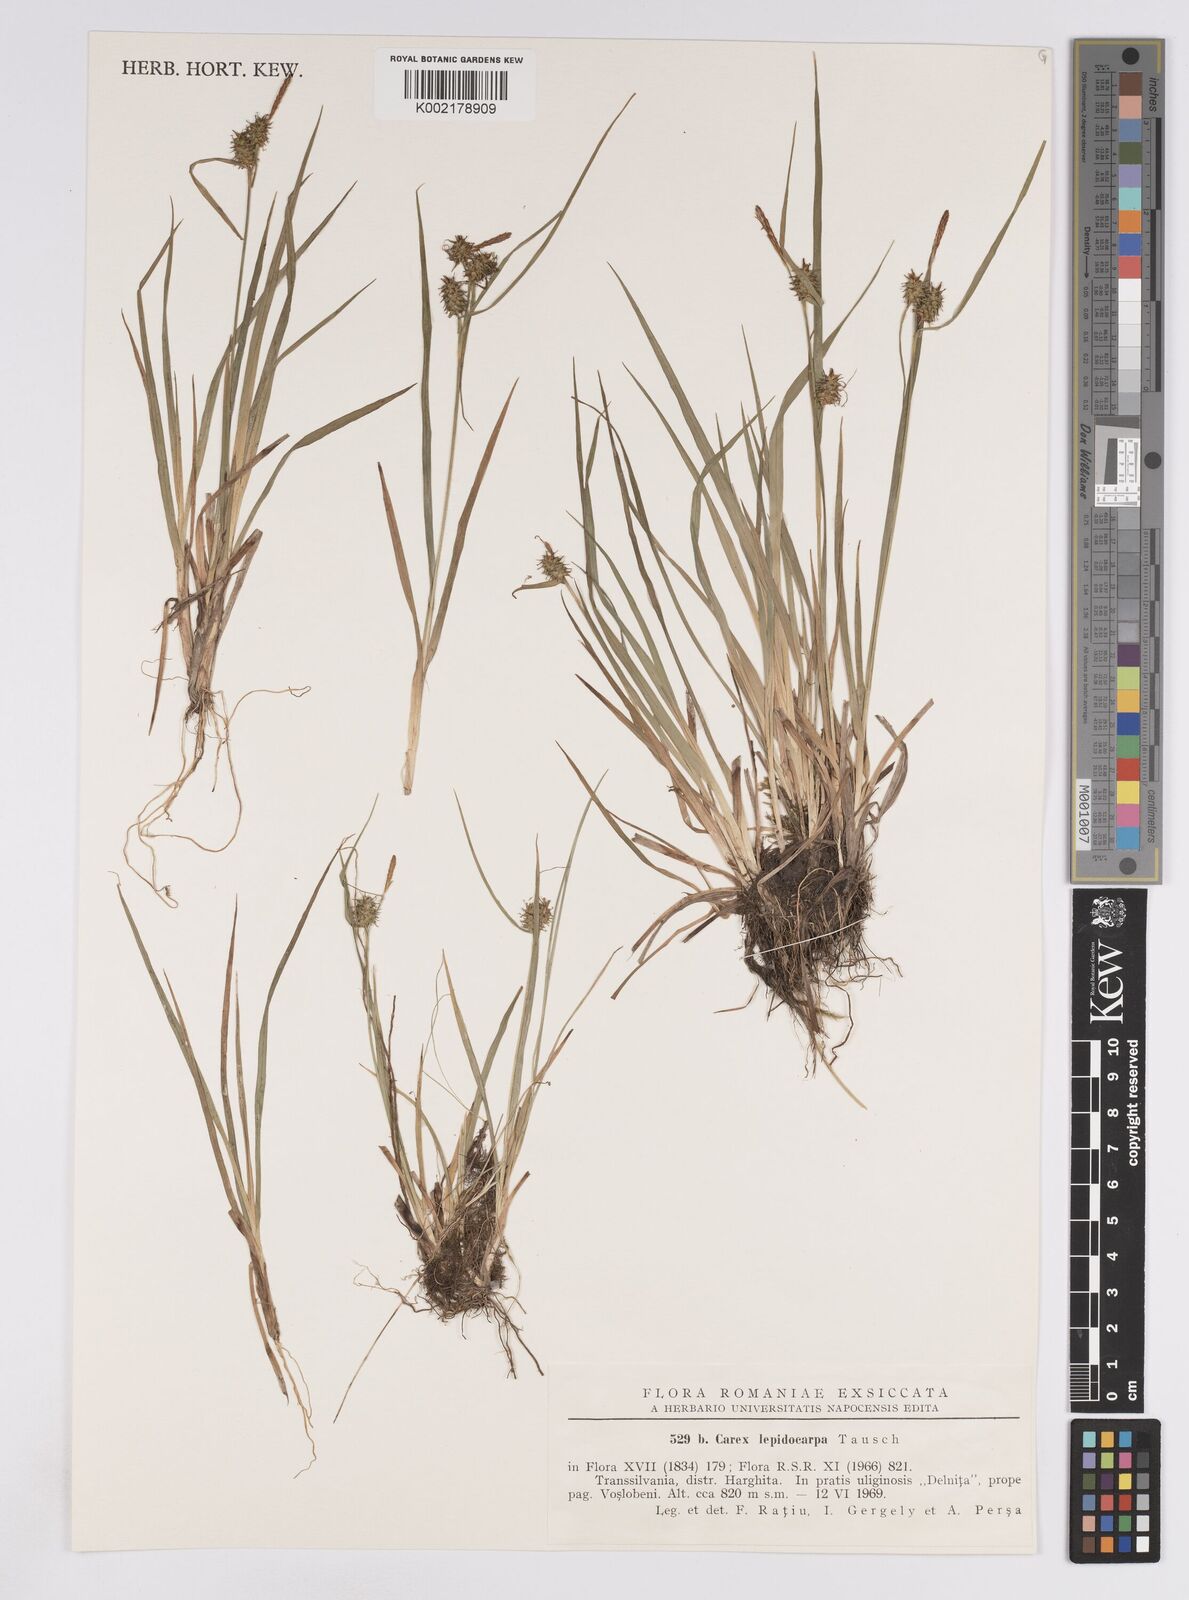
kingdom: Plantae
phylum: Tracheophyta
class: Liliopsida
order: Poales
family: Cyperaceae
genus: Carex
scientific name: Carex lepidocarpa
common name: Long-stalked yellow-sedge
